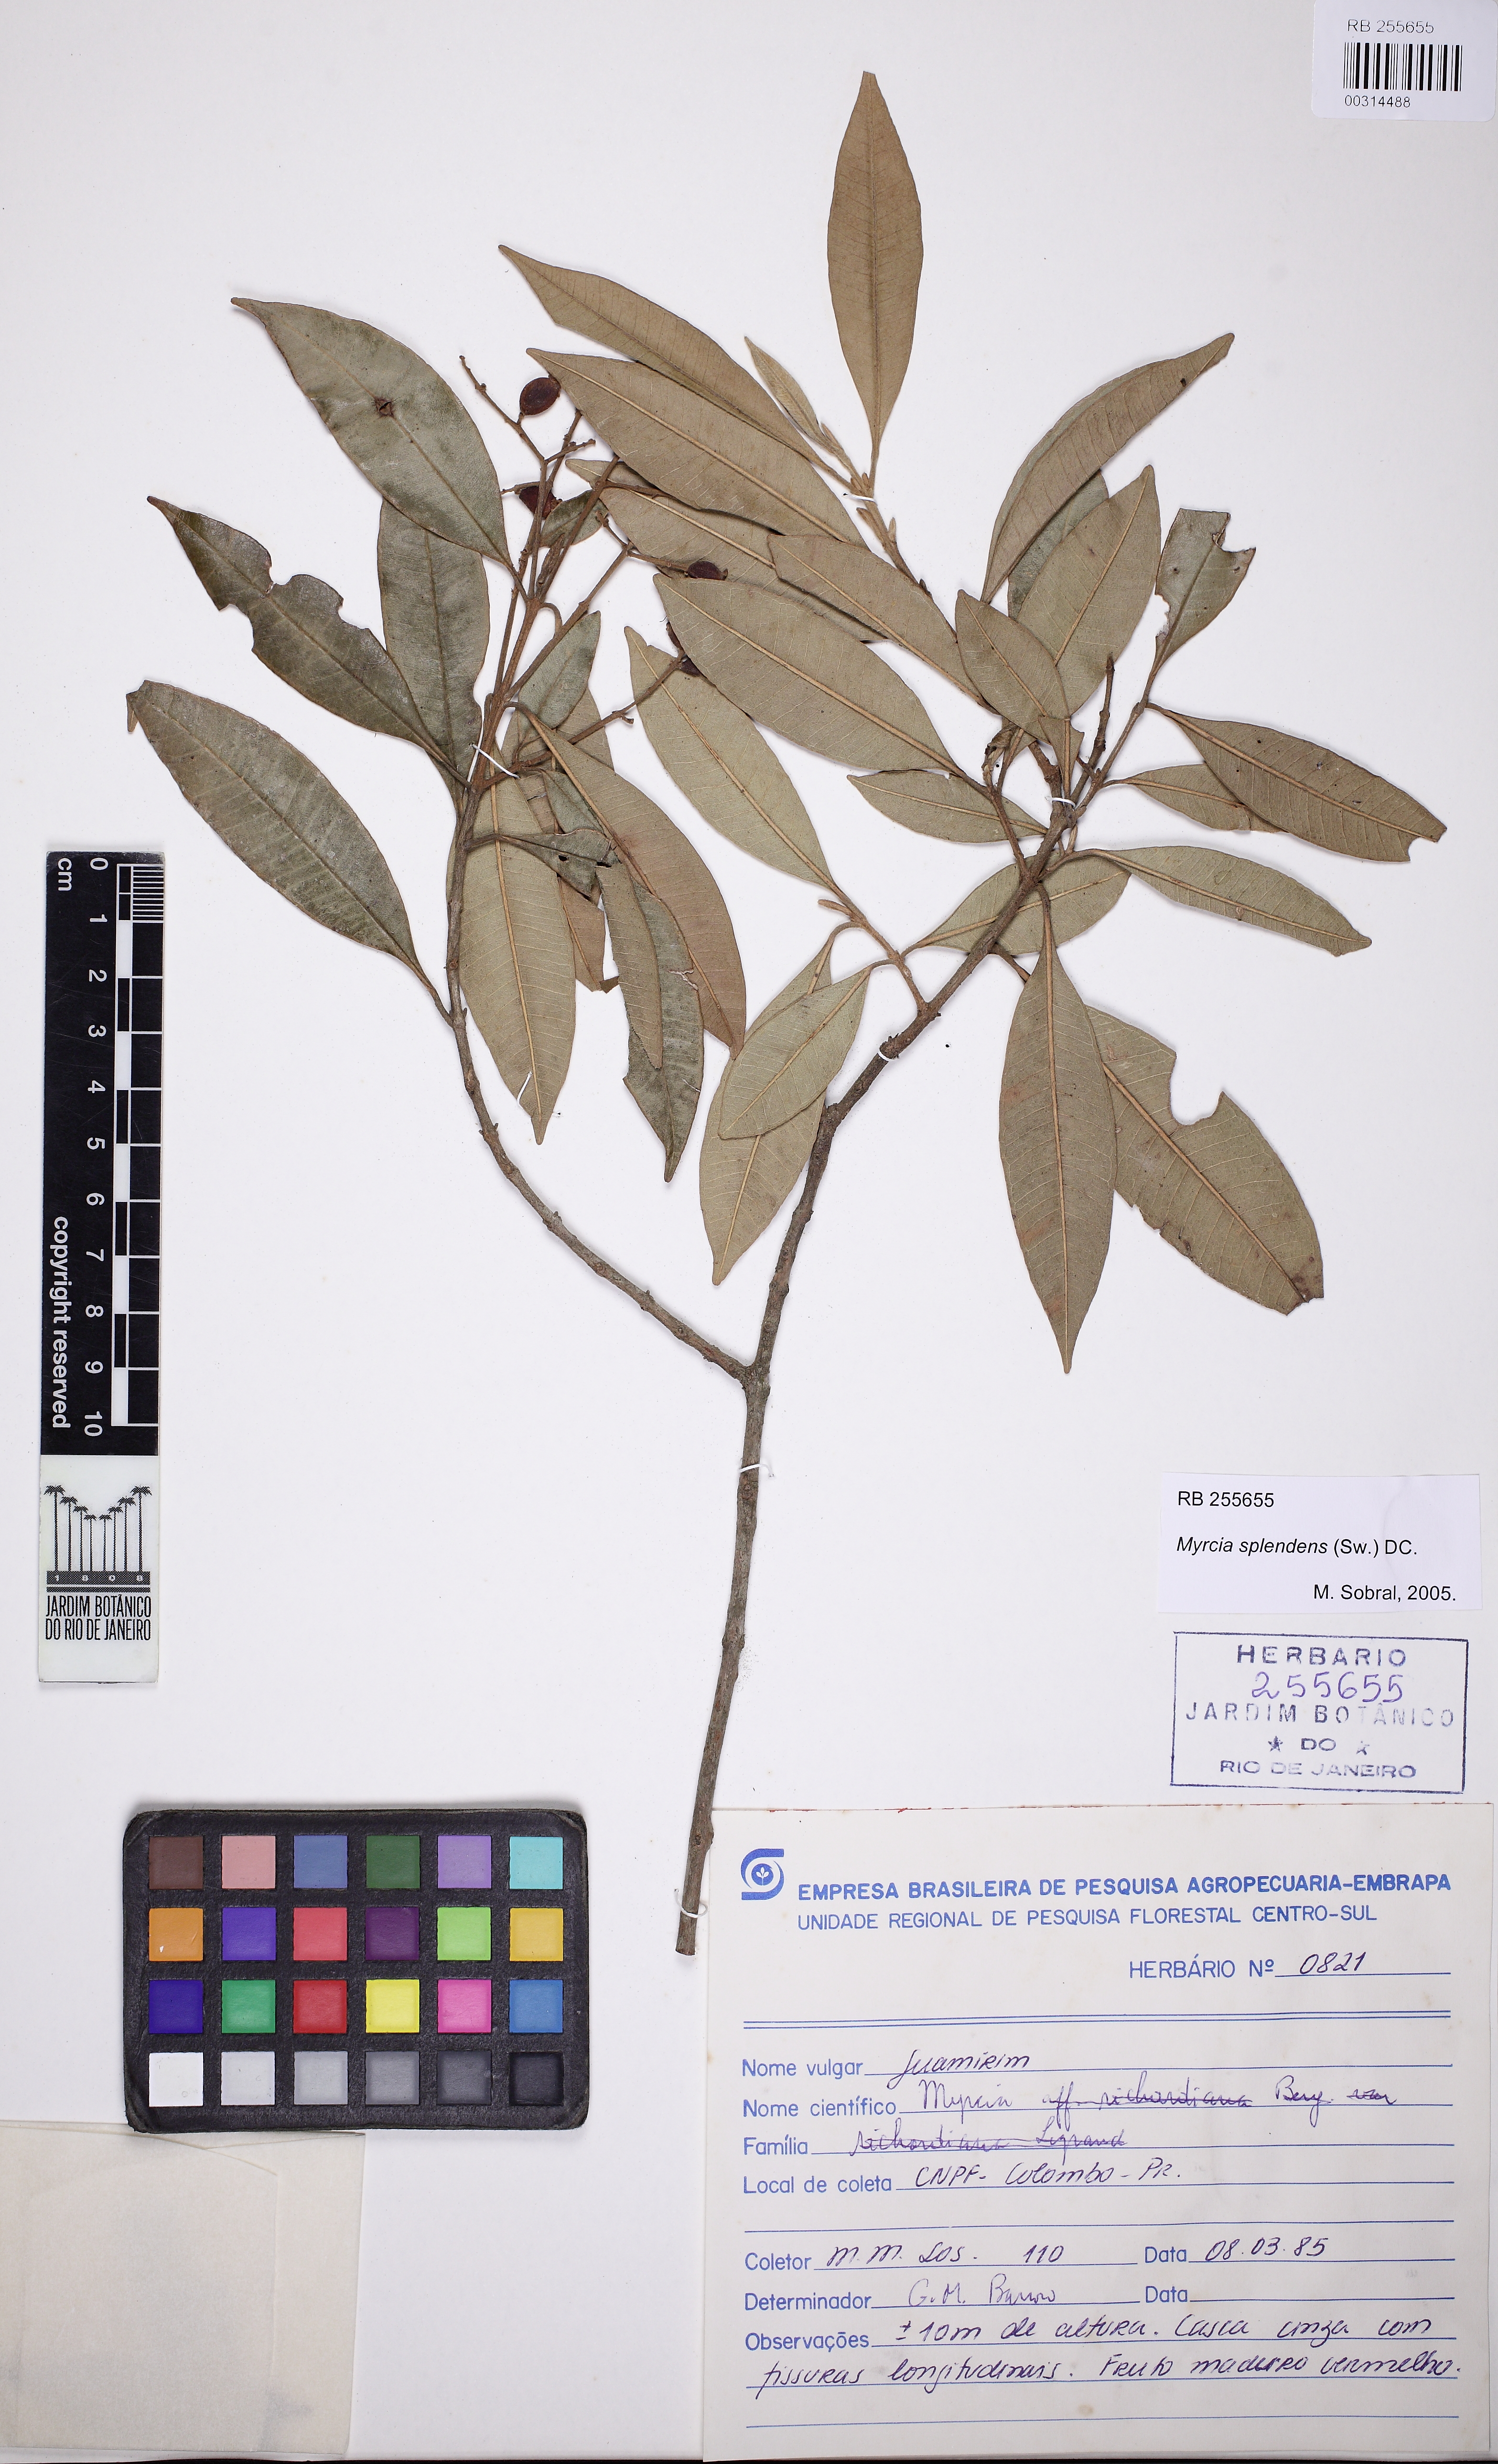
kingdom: Plantae
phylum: Tracheophyta
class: Magnoliopsida
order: Myrtales
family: Myrtaceae
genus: Myrcia
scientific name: Myrcia splendens
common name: Surinam cherry
